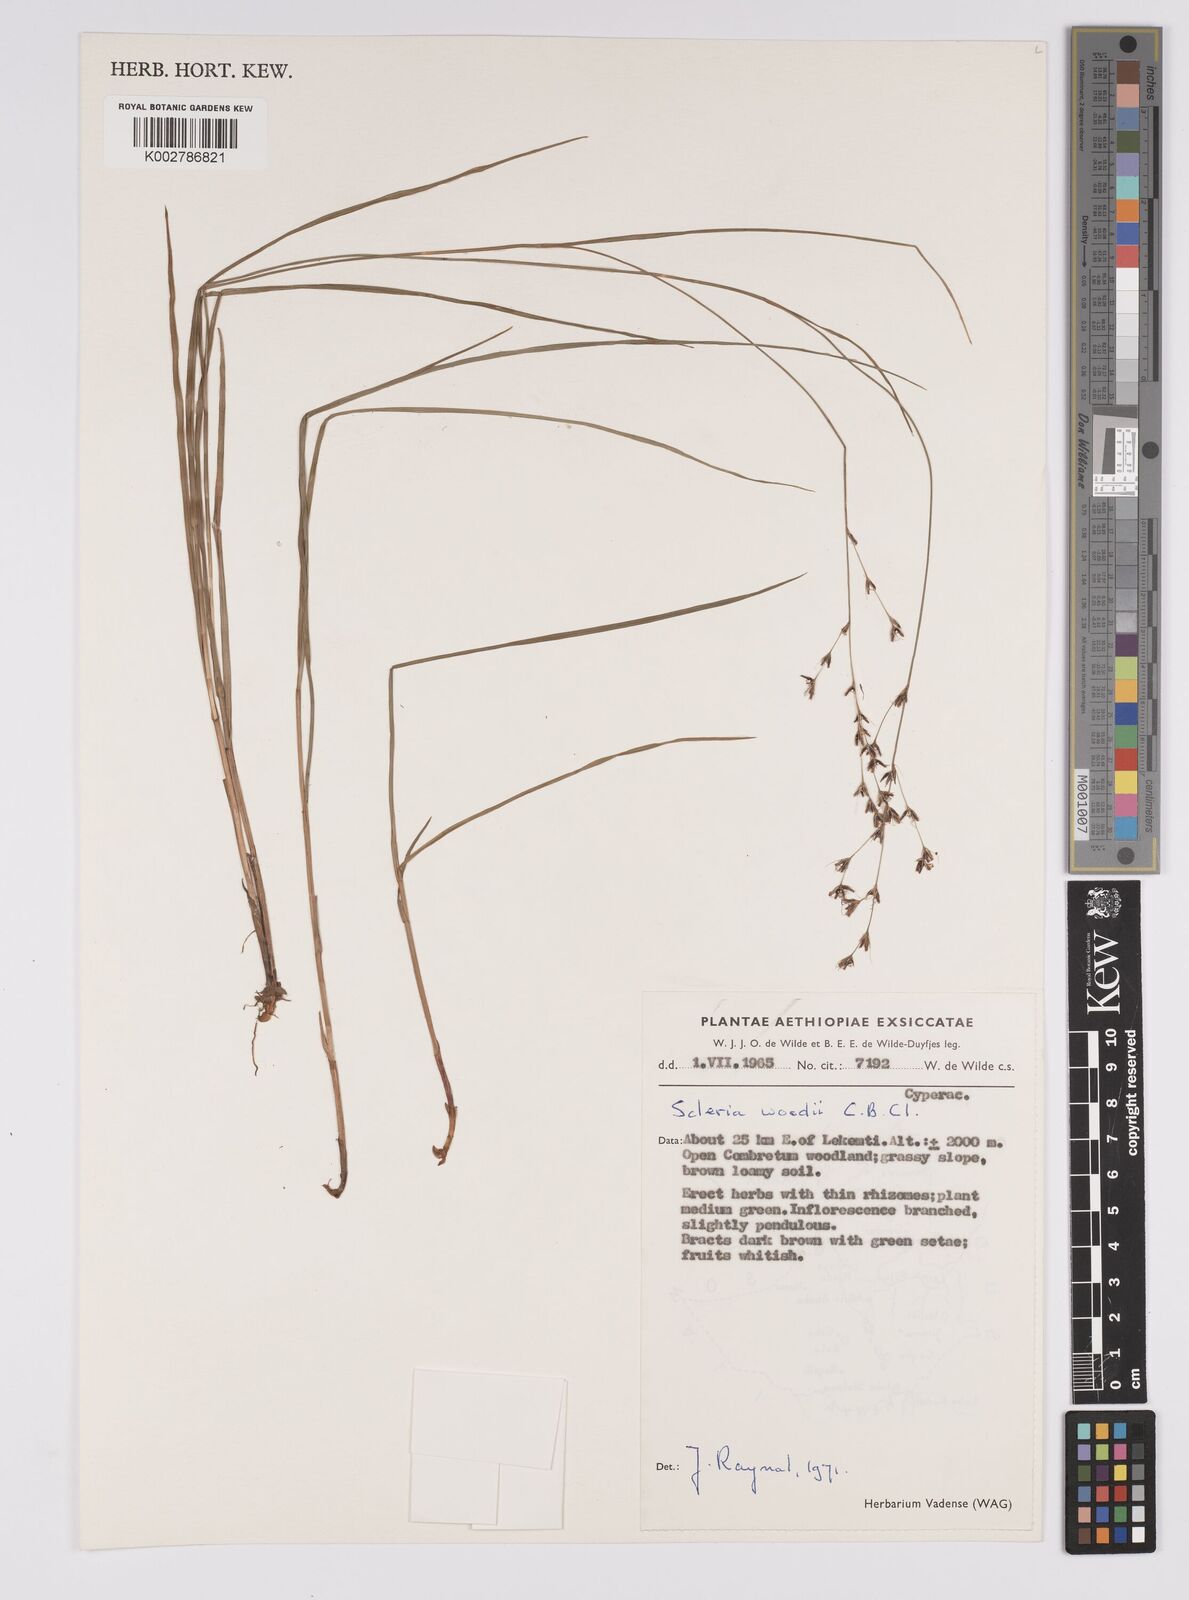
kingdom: Plantae
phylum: Tracheophyta
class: Liliopsida
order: Poales
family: Cyperaceae
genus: Scleria
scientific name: Scleria woodii
